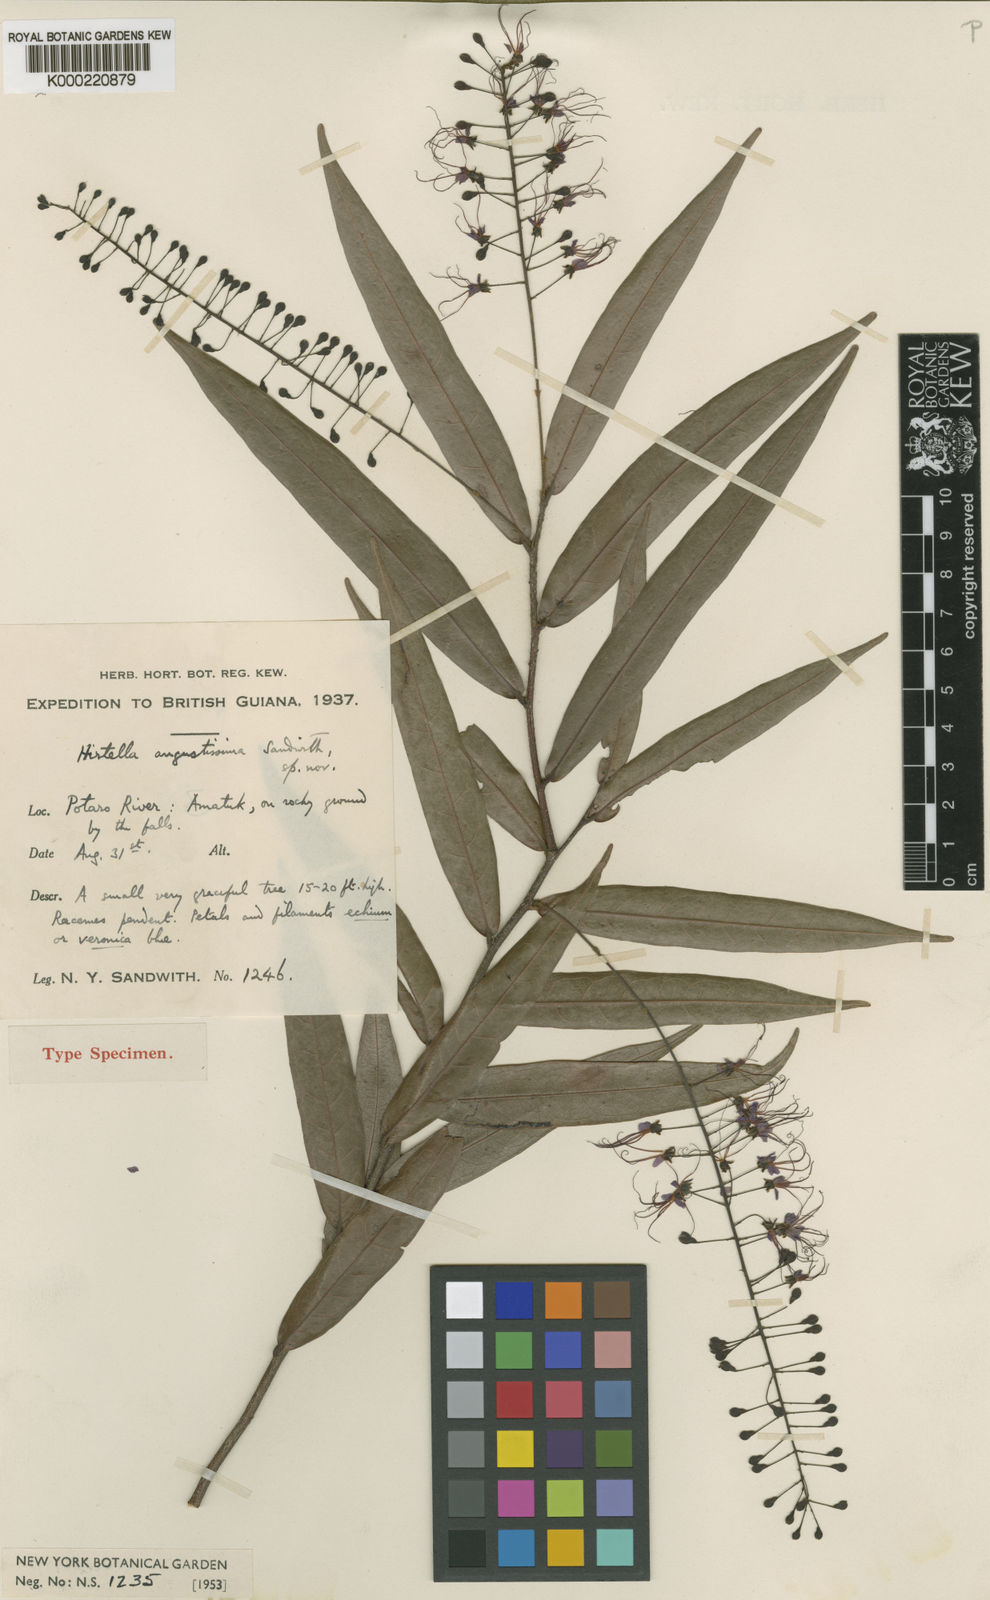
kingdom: Plantae
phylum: Tracheophyta
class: Magnoliopsida
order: Malpighiales
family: Chrysobalanaceae
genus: Hirtella
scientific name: Hirtella angustissima
